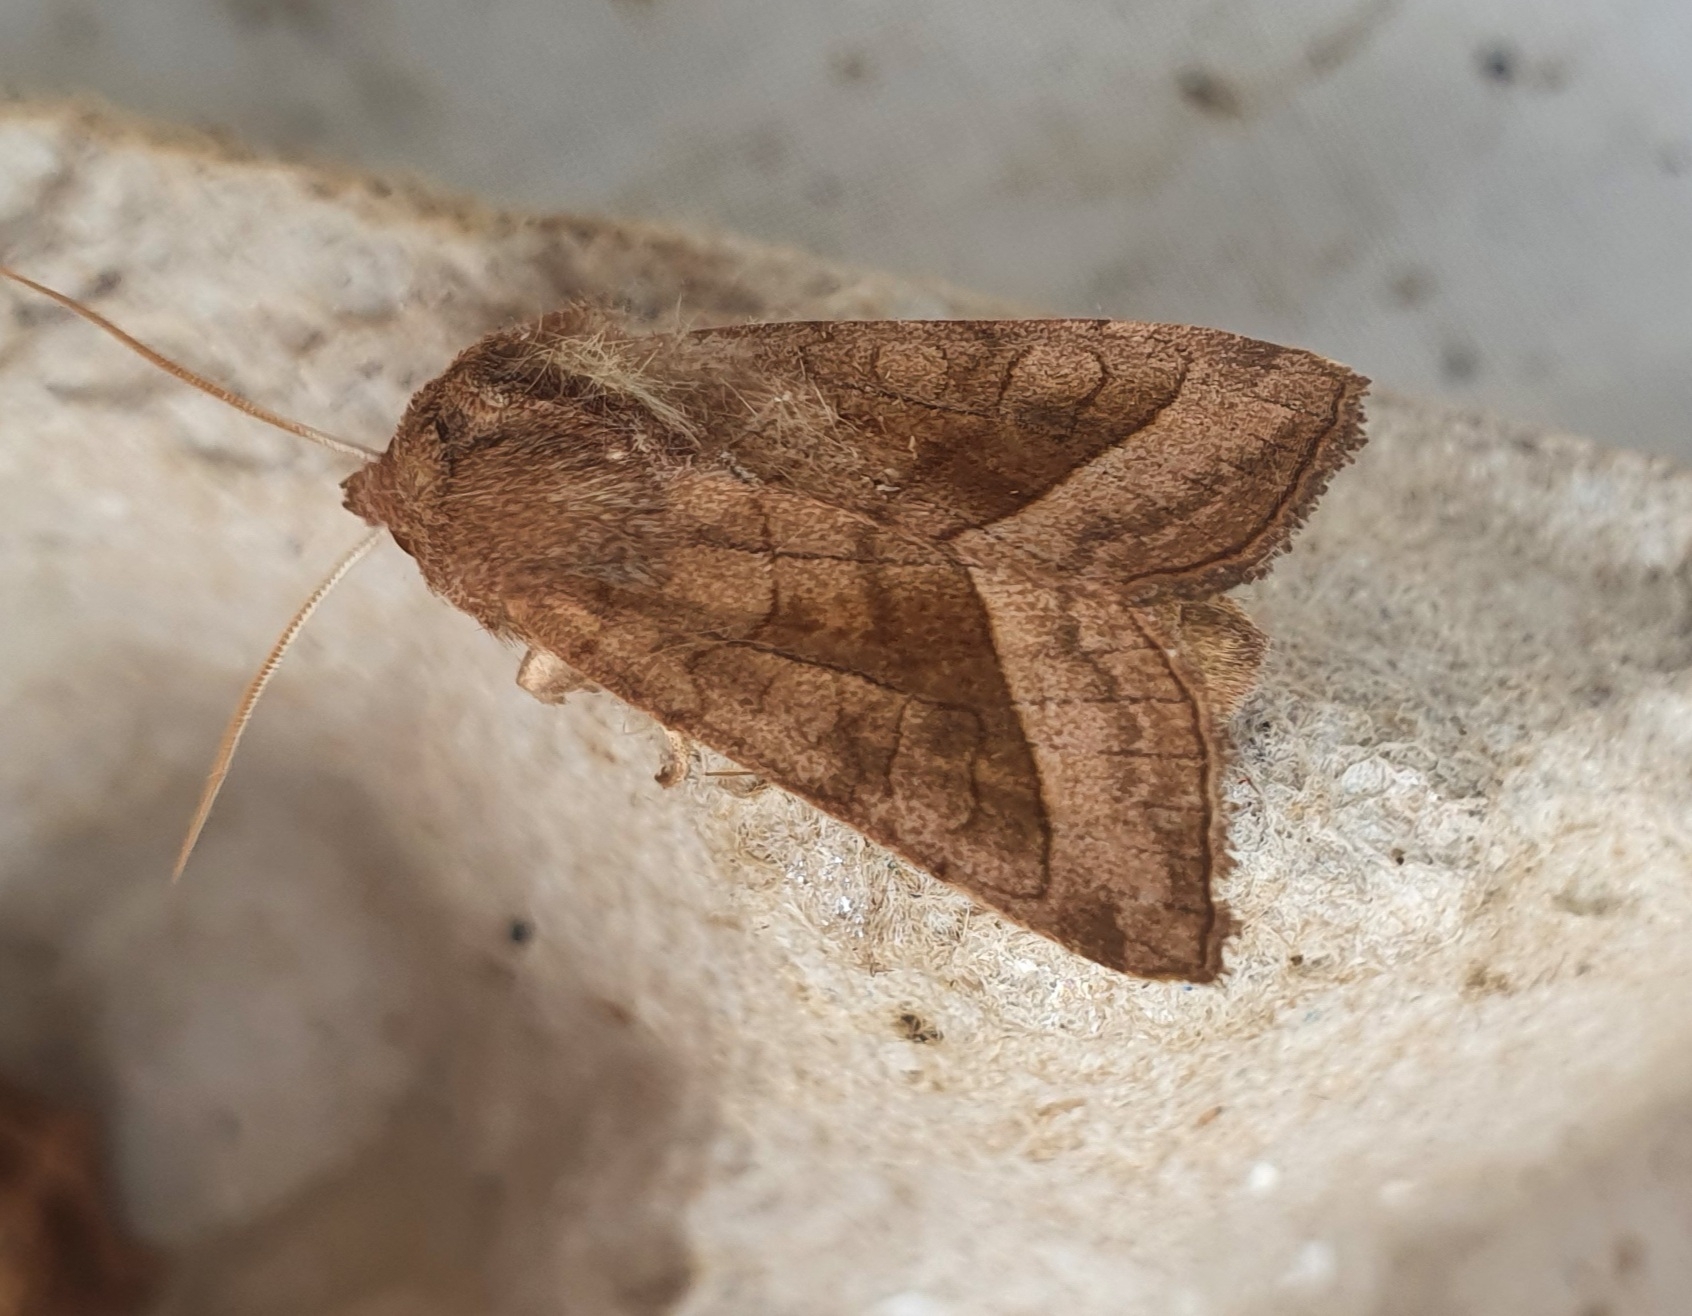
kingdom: Animalia
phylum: Arthropoda
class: Insecta
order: Lepidoptera
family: Noctuidae
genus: Hydraecia
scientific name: Hydraecia micacea
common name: Kartoffelborer
